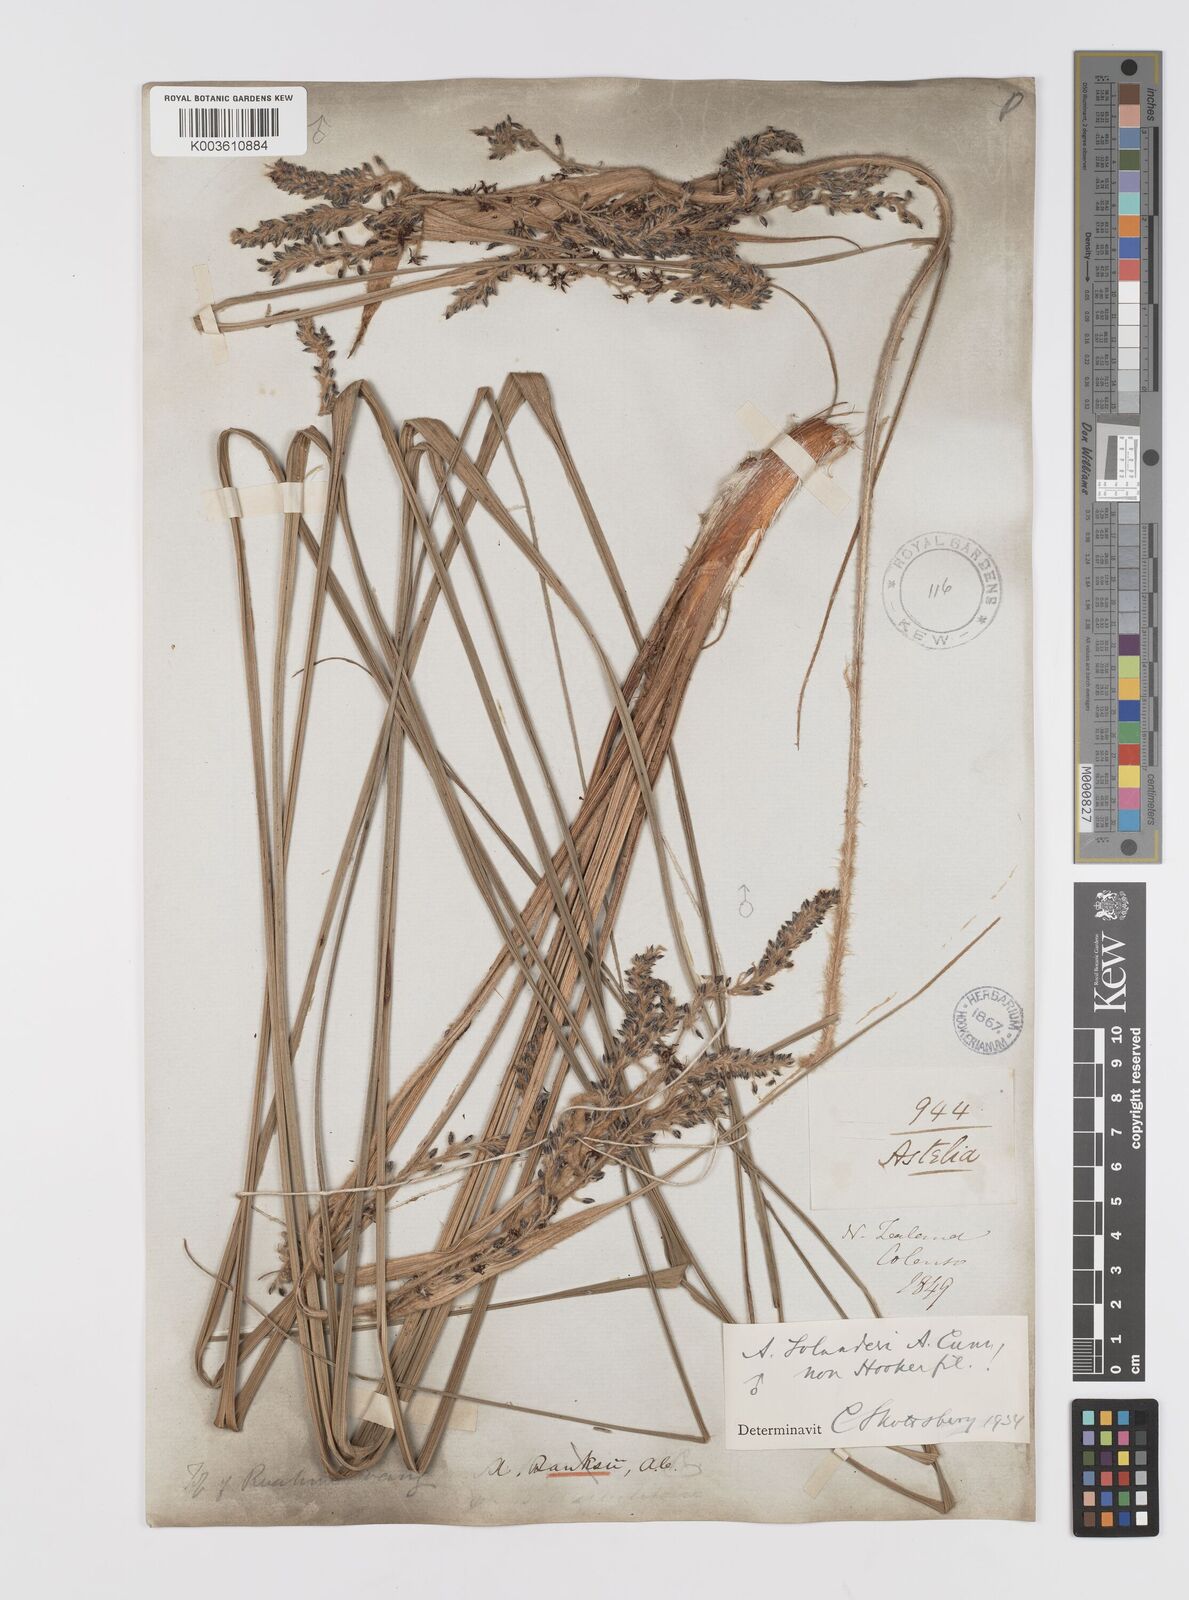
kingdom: Plantae
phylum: Tracheophyta
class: Liliopsida
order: Asparagales
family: Asteliaceae
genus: Astelia
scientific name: Astelia solandri
